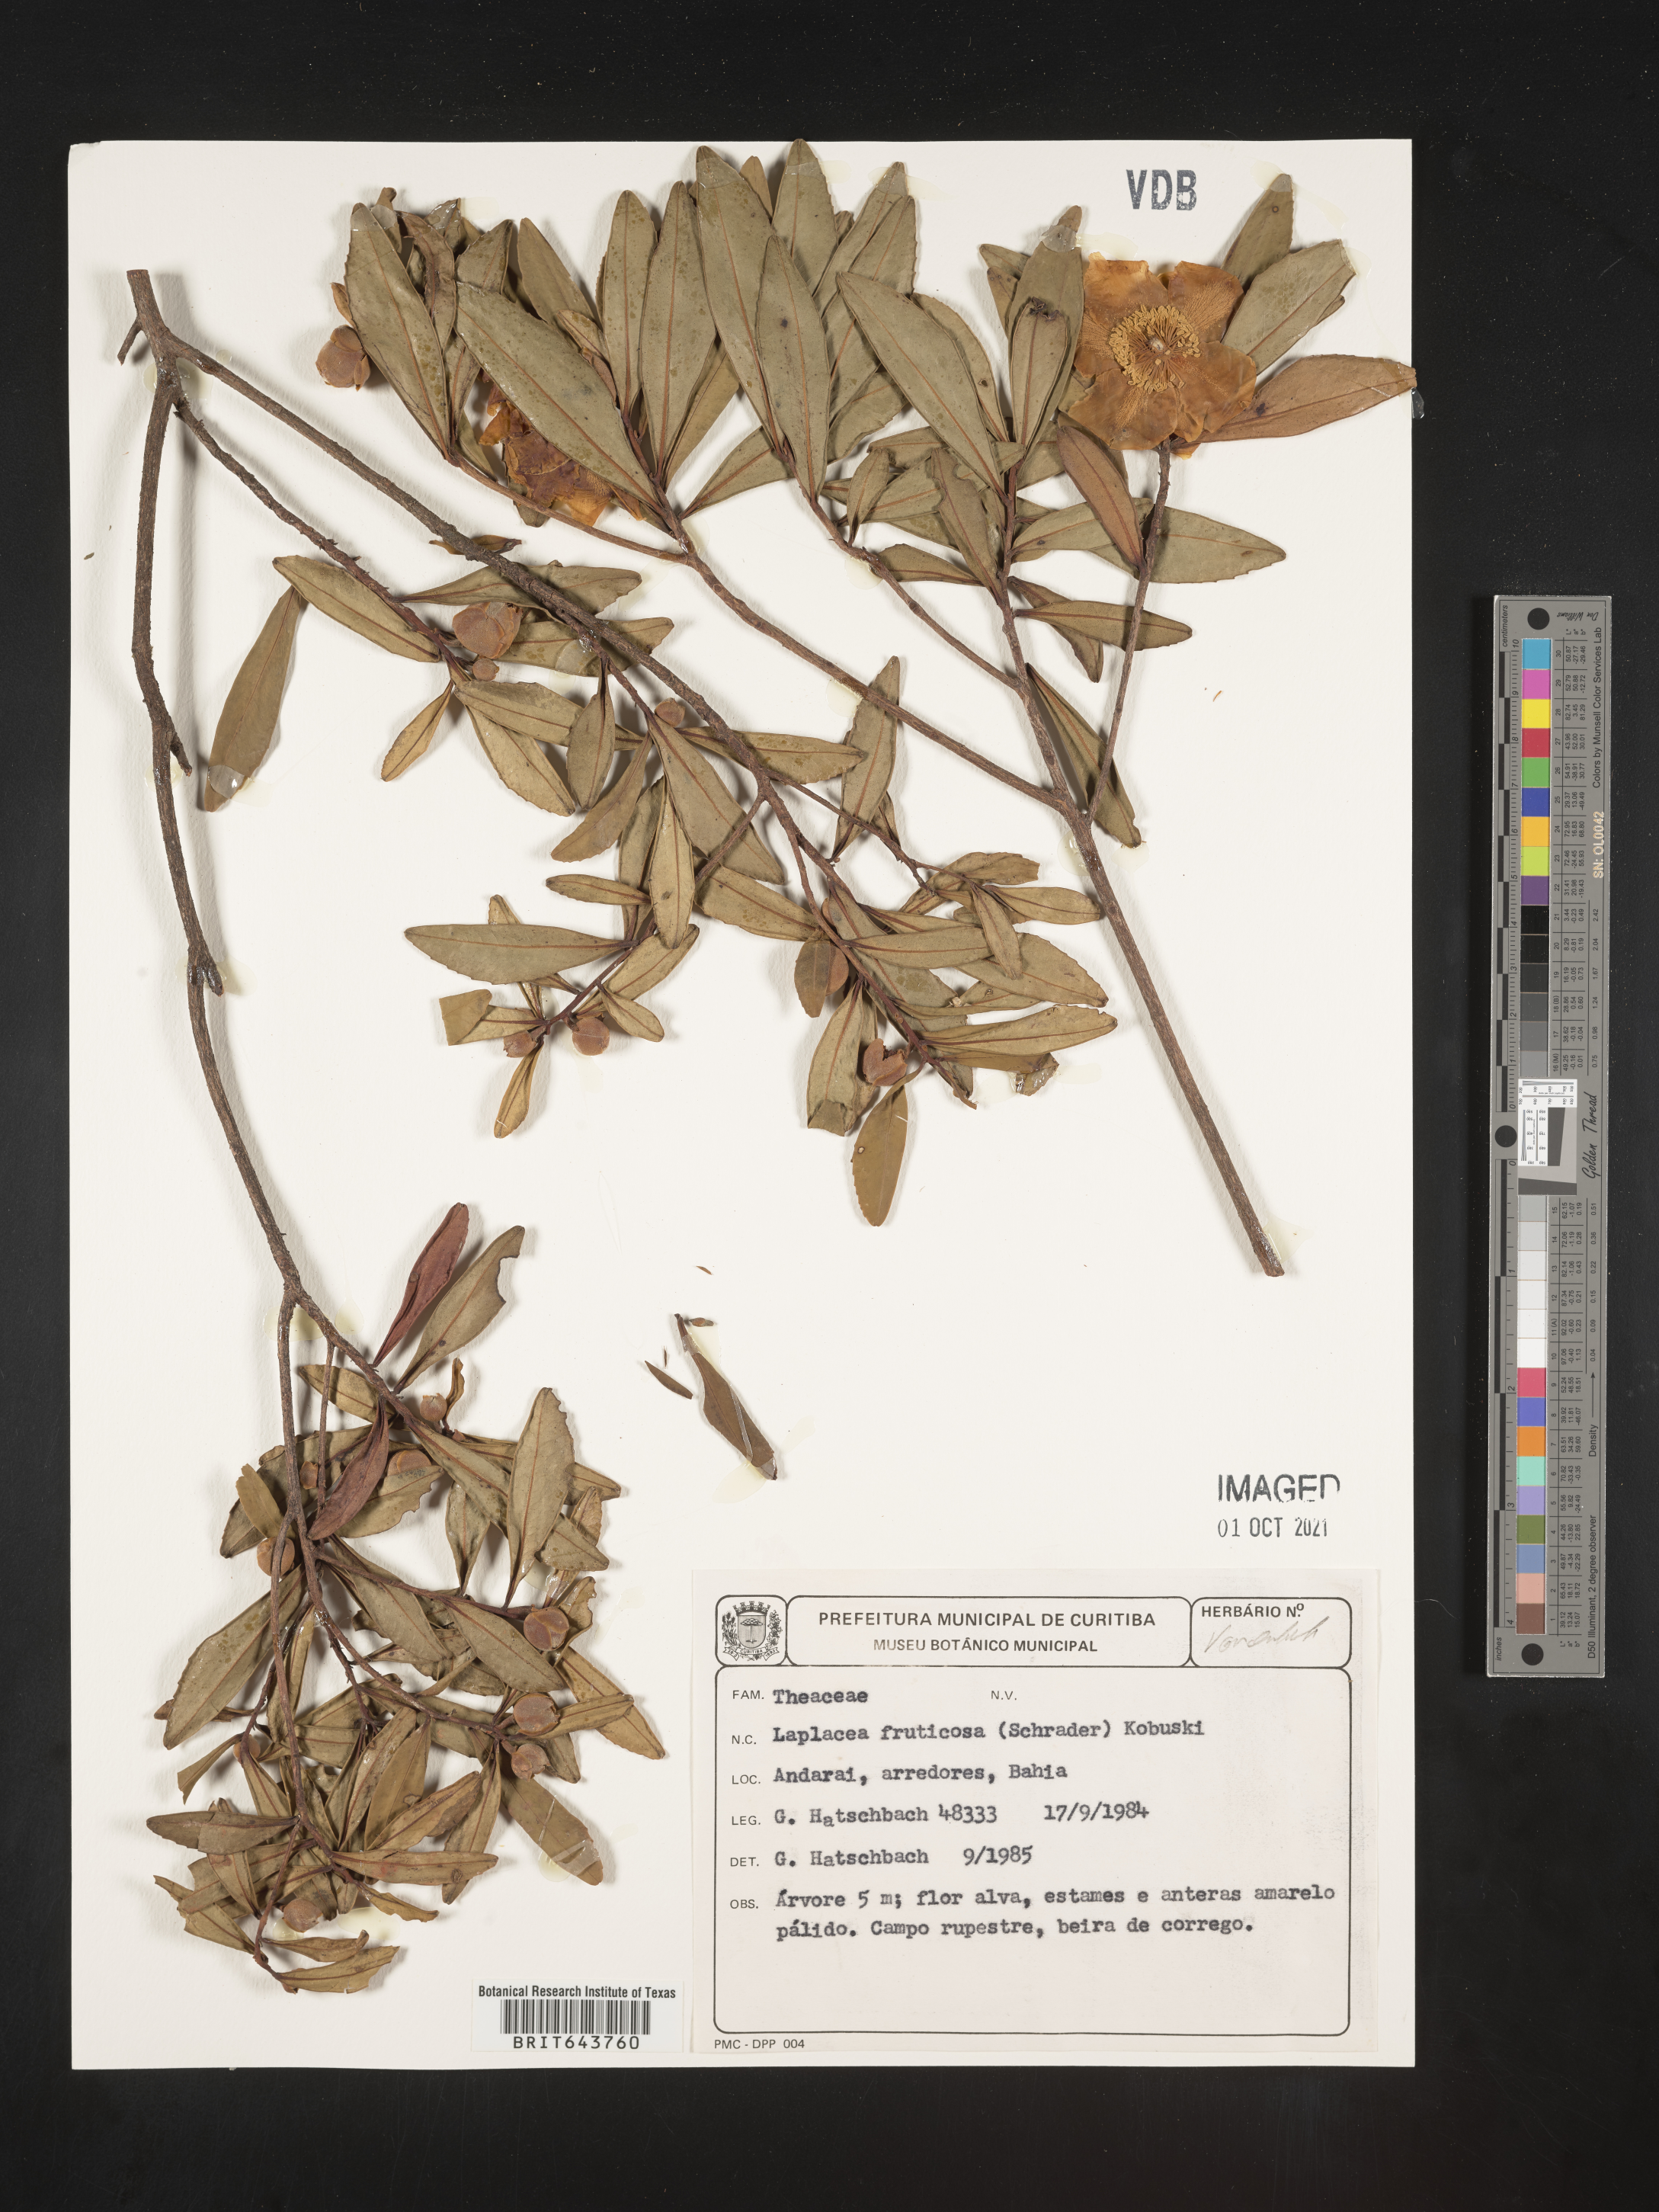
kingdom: Plantae
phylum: Tracheophyta
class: Magnoliopsida
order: Ericales
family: Theaceae
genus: Gordonia
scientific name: Gordonia
